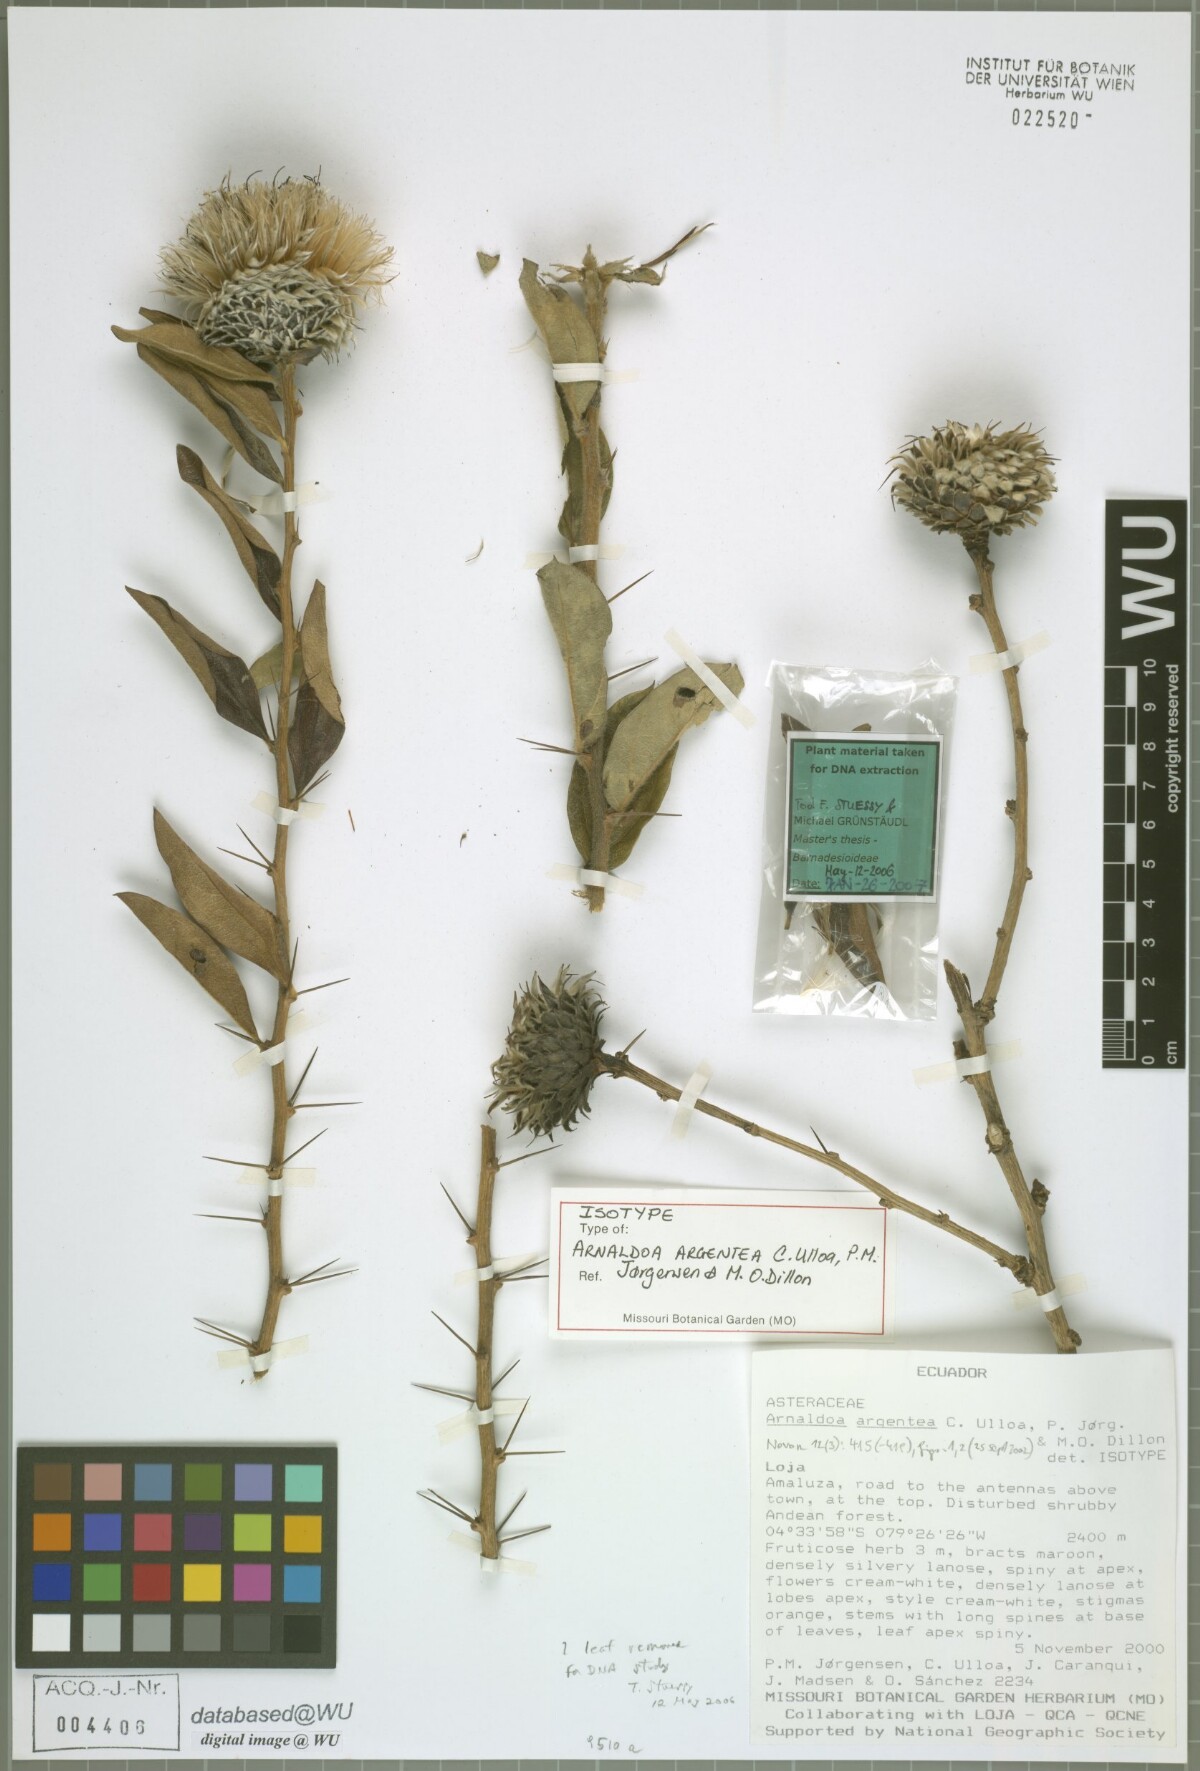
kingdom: Plantae
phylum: Tracheophyta
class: Magnoliopsida
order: Asterales
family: Asteraceae
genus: Arnaldoa
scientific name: Arnaldoa argentea
